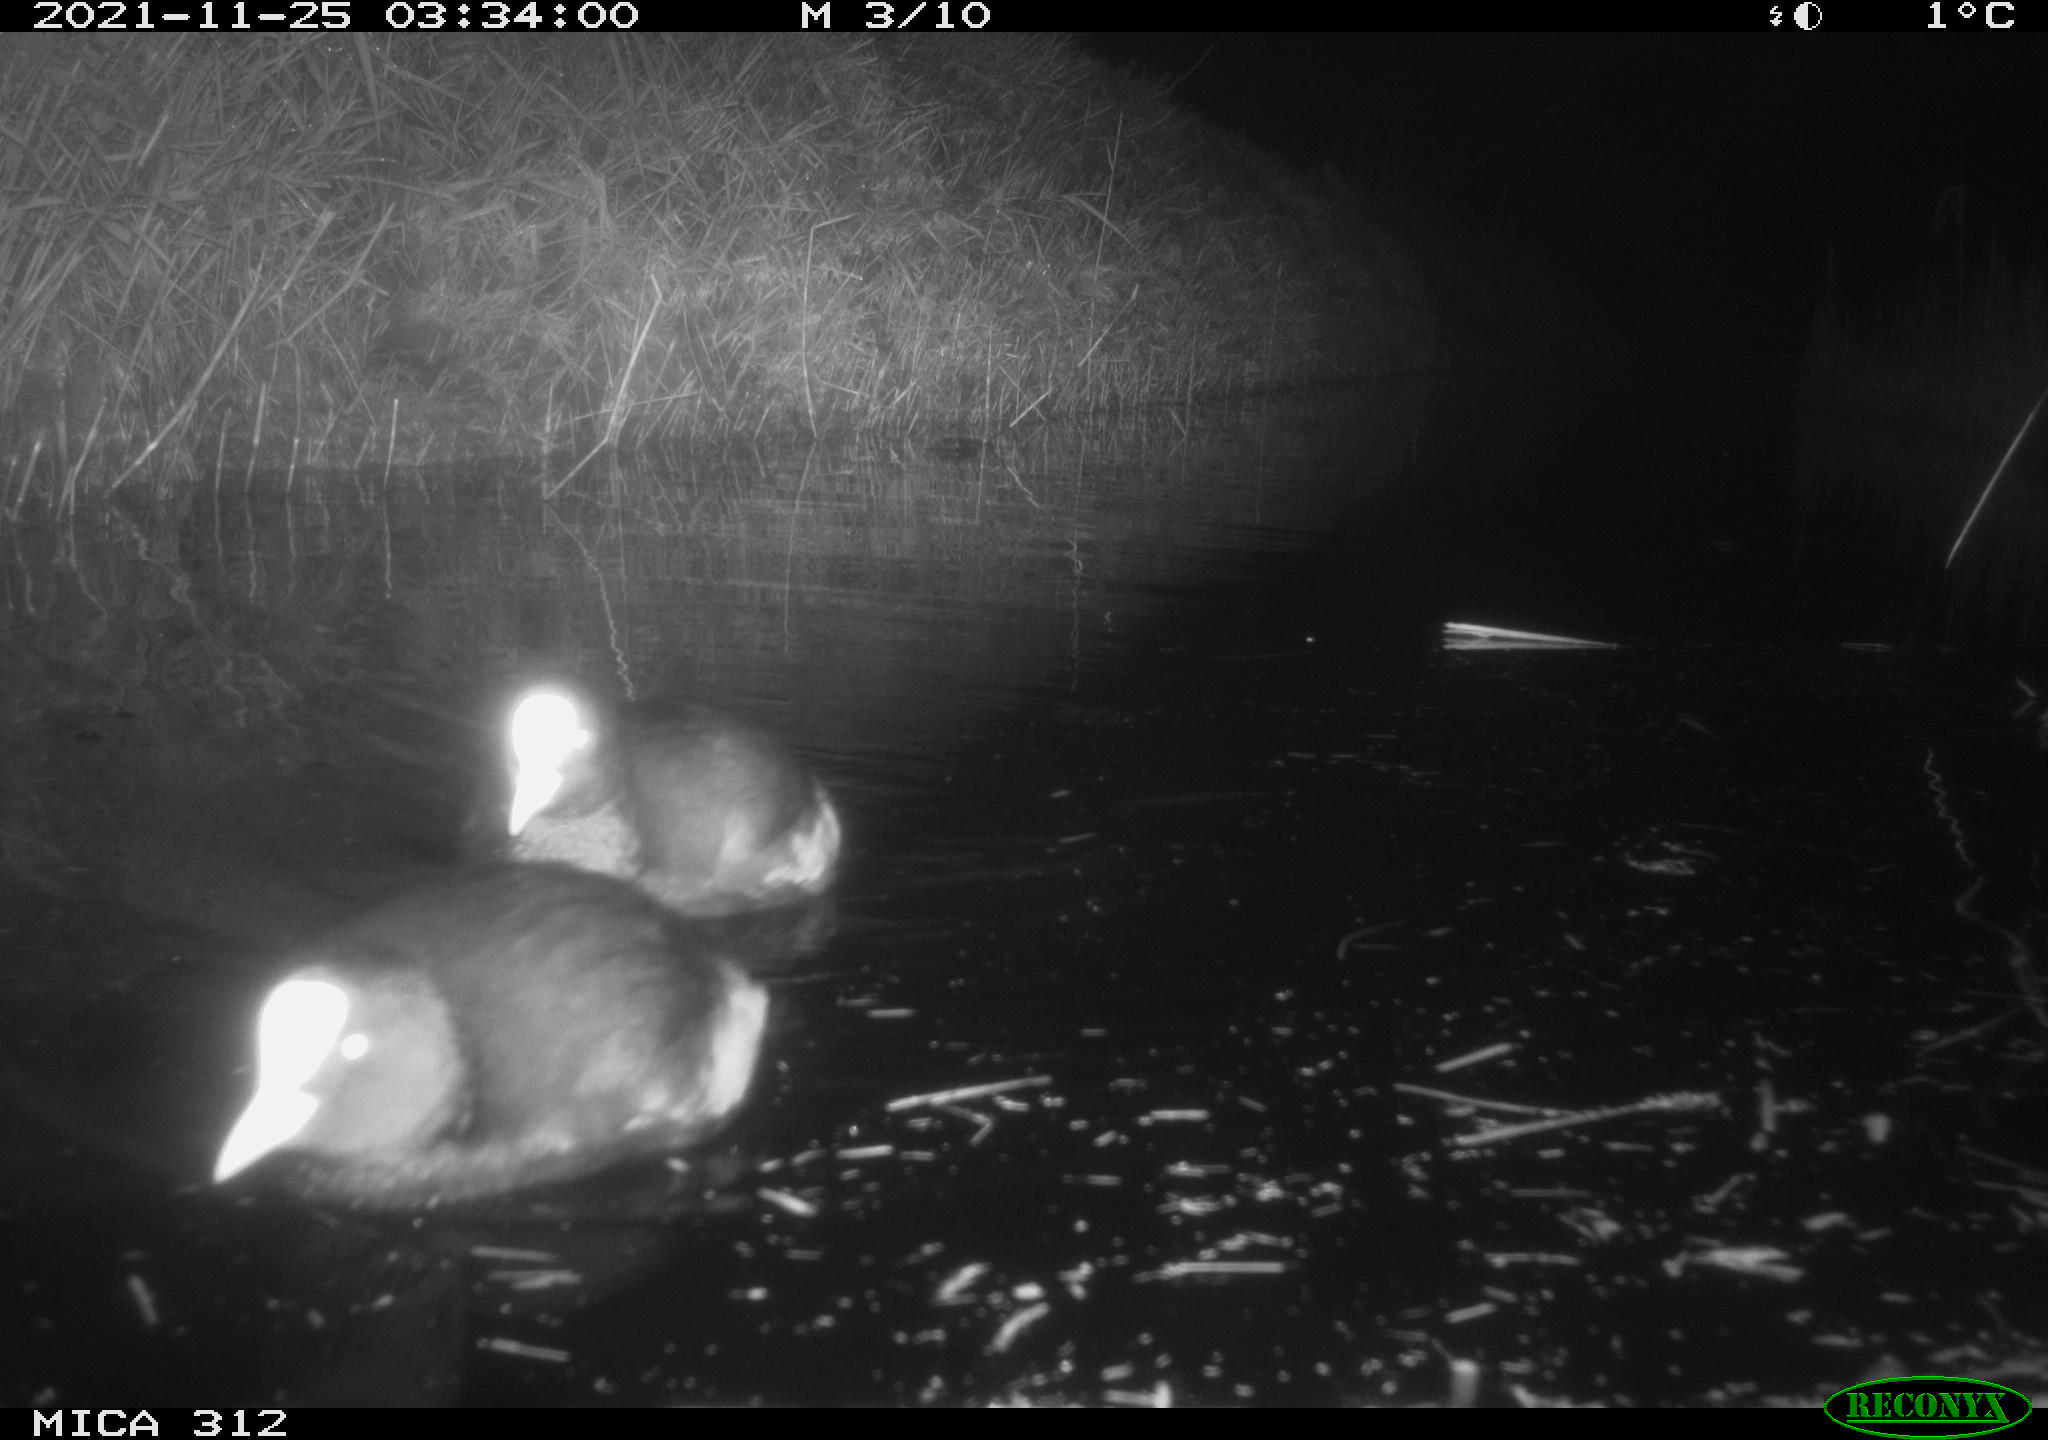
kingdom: Animalia
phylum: Chordata
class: Aves
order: Gruiformes
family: Rallidae
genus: Fulica
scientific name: Fulica atra
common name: Eurasian coot
